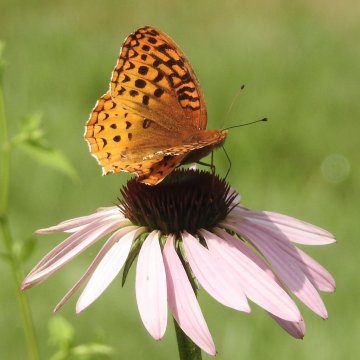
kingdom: Animalia
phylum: Arthropoda
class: Insecta
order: Lepidoptera
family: Nymphalidae
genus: Speyeria
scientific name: Speyeria cybele
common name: Great Spangled Fritillary
